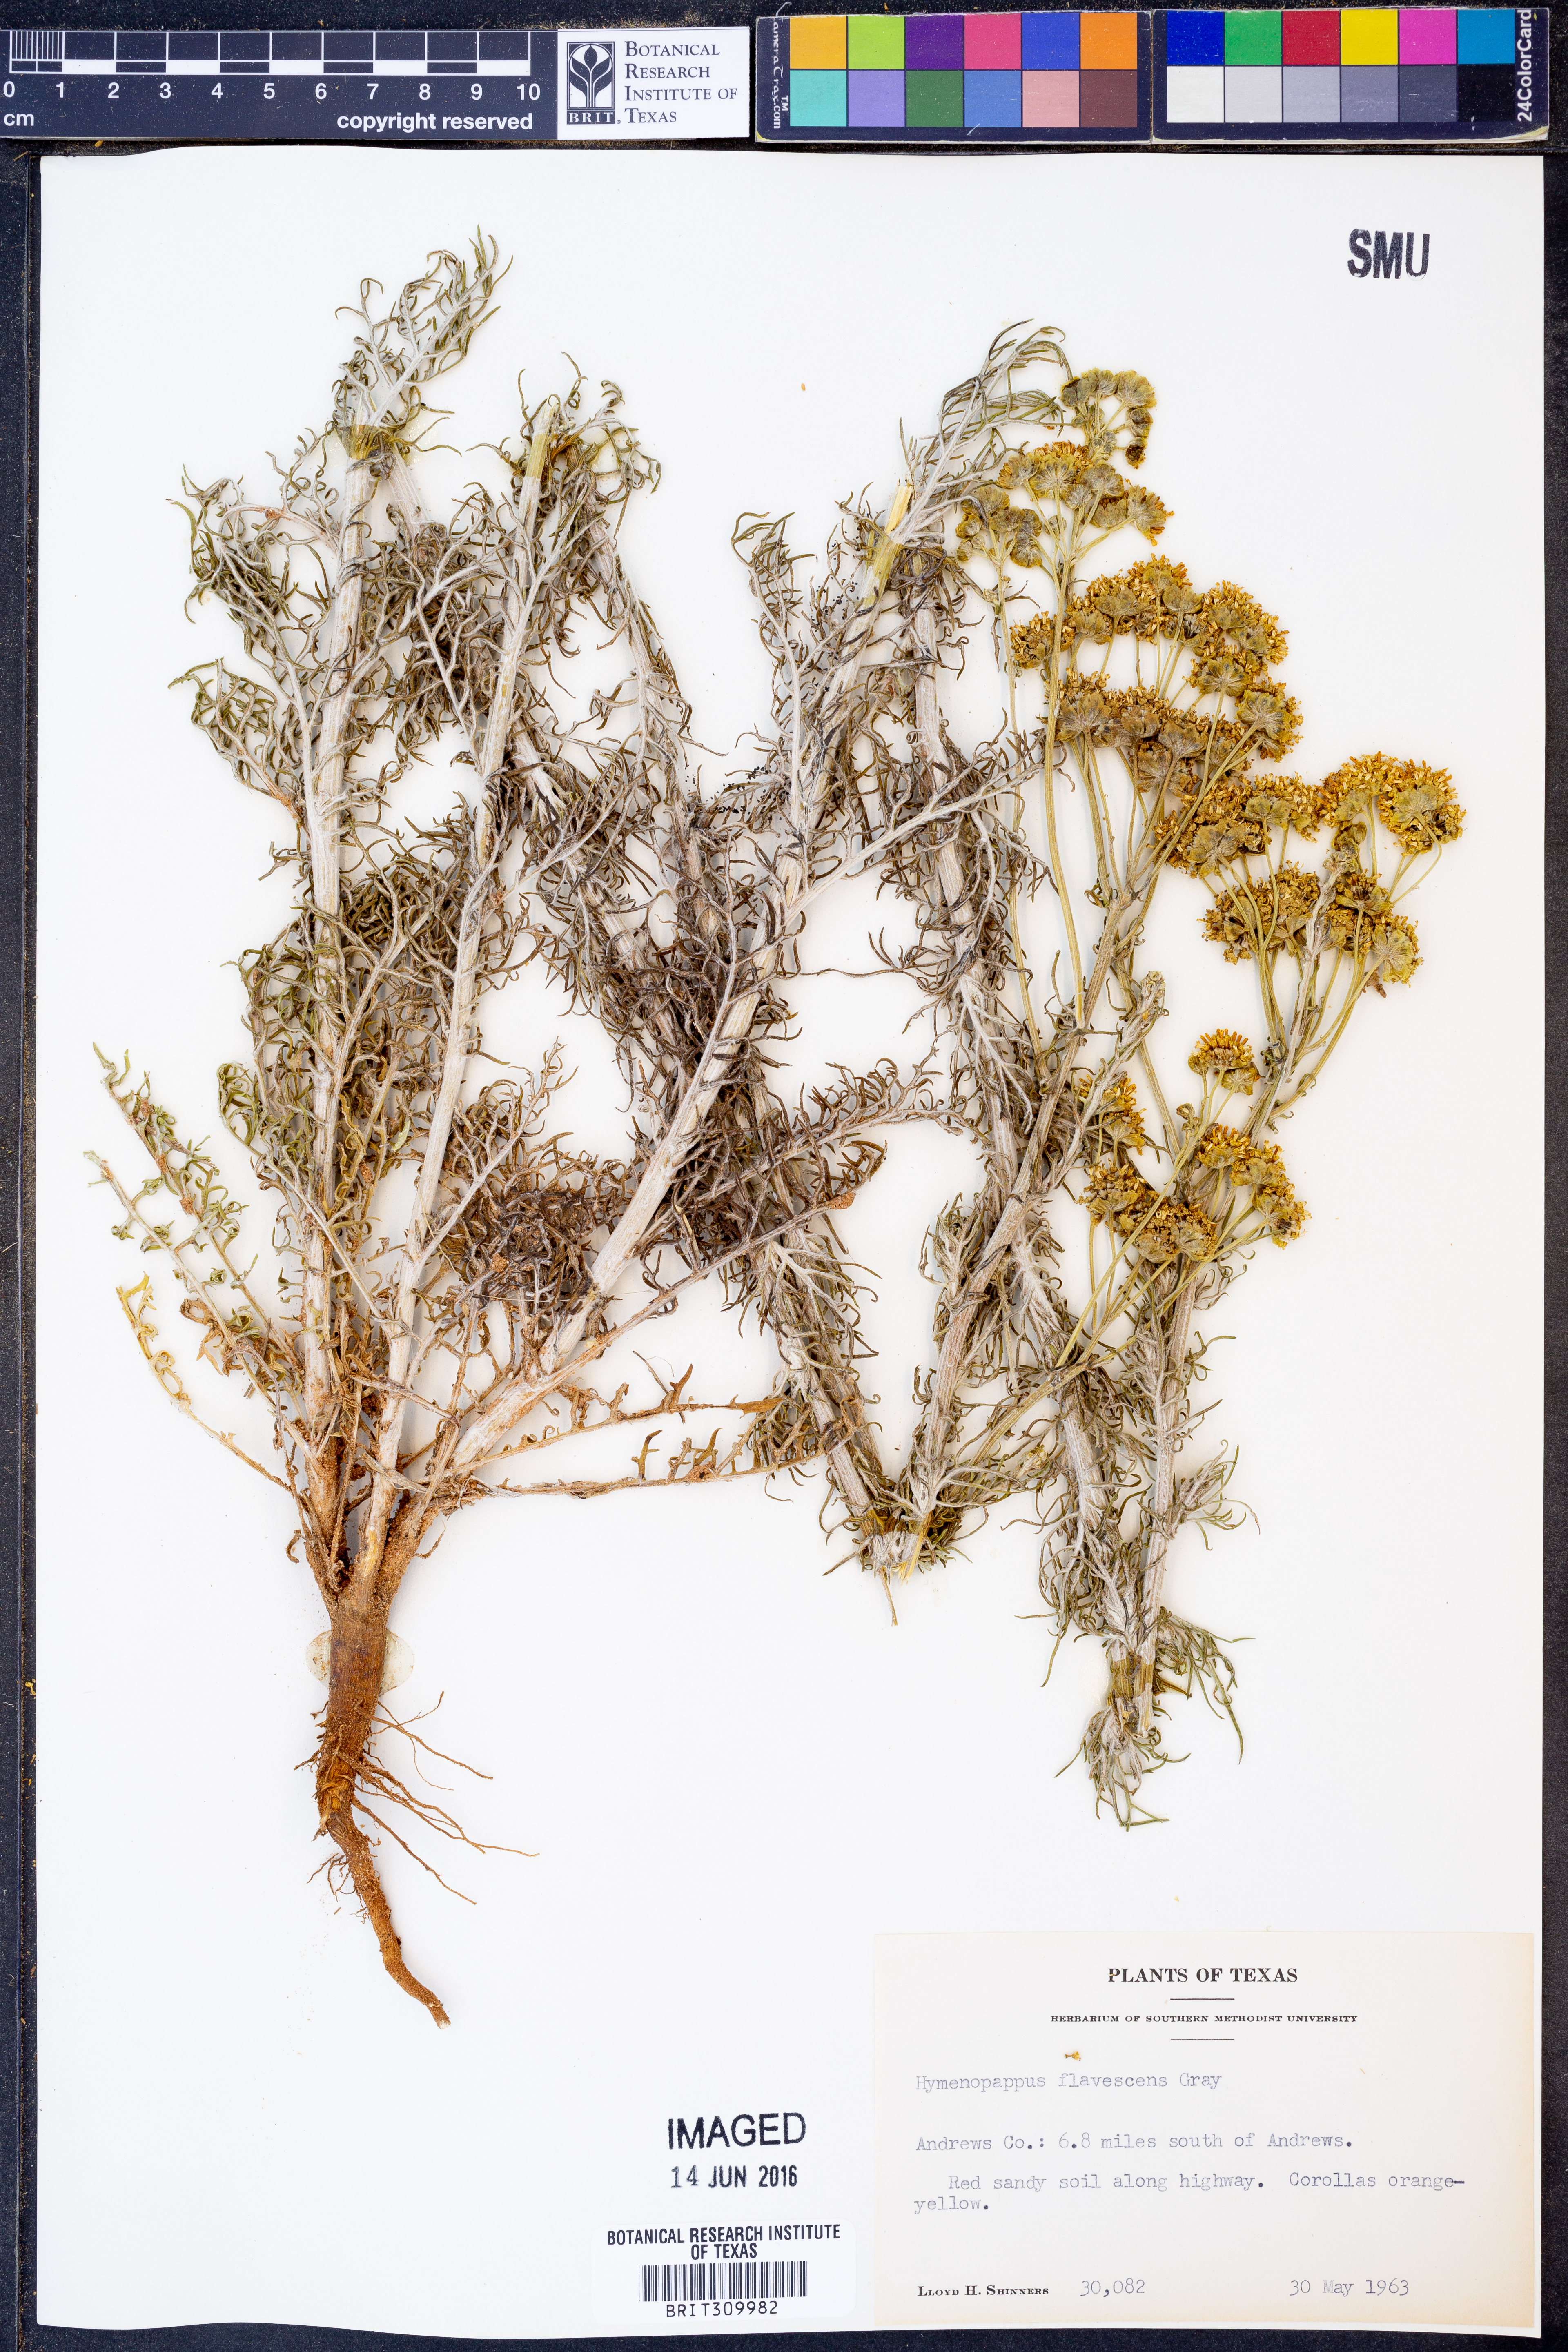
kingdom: Plantae
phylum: Tracheophyta
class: Magnoliopsida
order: Asterales
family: Asteraceae
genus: Hymenopappus
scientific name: Hymenopappus flavescens
